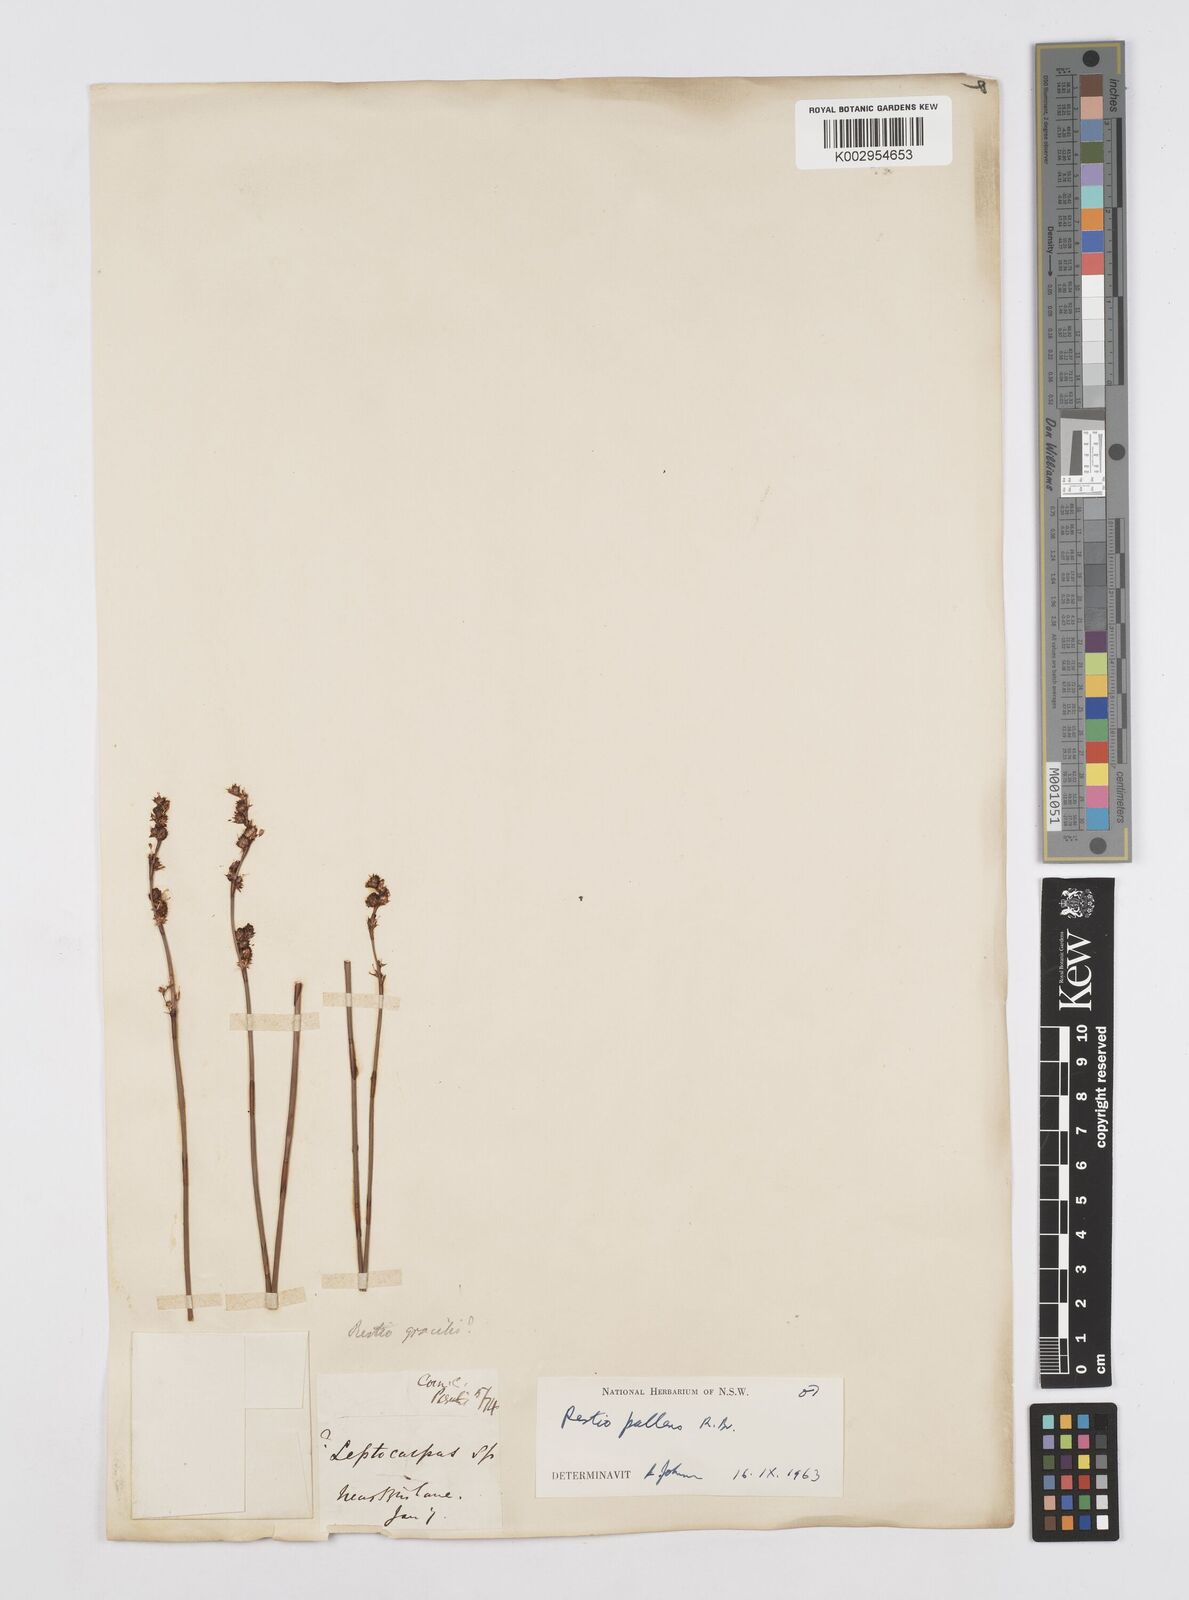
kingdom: Plantae
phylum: Tracheophyta
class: Liliopsida
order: Poales
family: Restionaceae
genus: Baloskion
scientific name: Baloskion pallens
